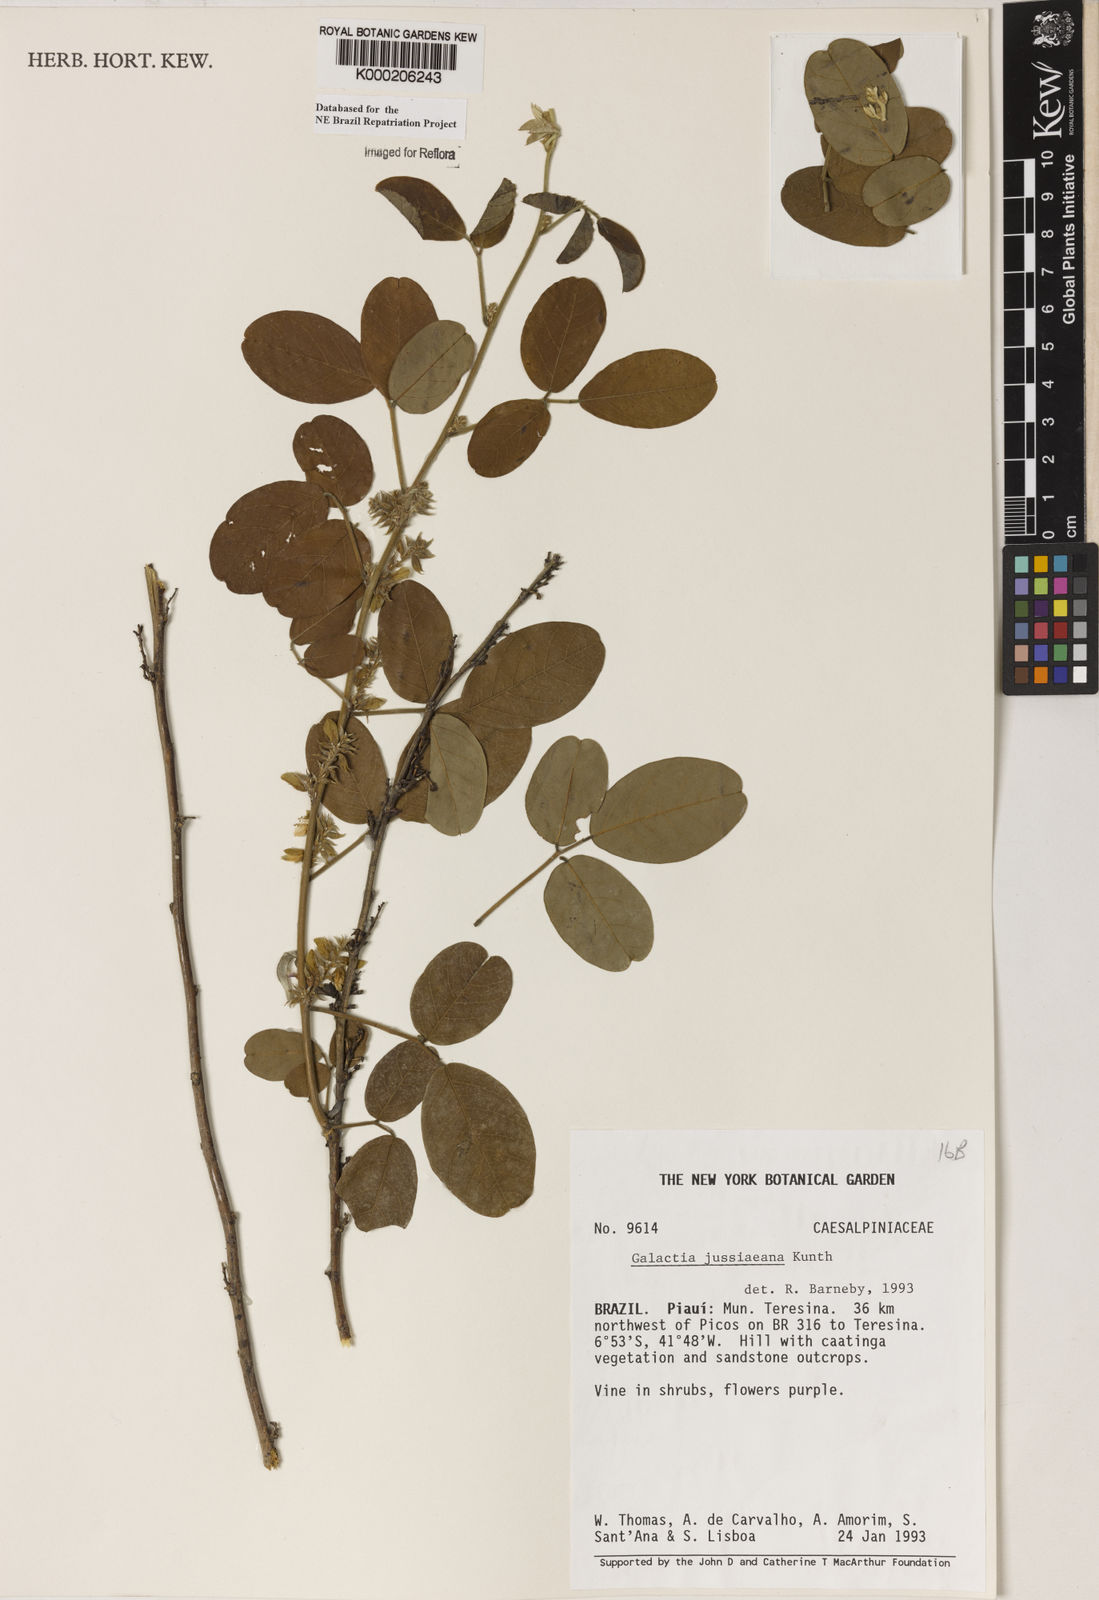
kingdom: Plantae
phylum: Tracheophyta
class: Magnoliopsida
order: Fabales
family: Fabaceae
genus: Galactia
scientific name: Galactia jussiaeana
